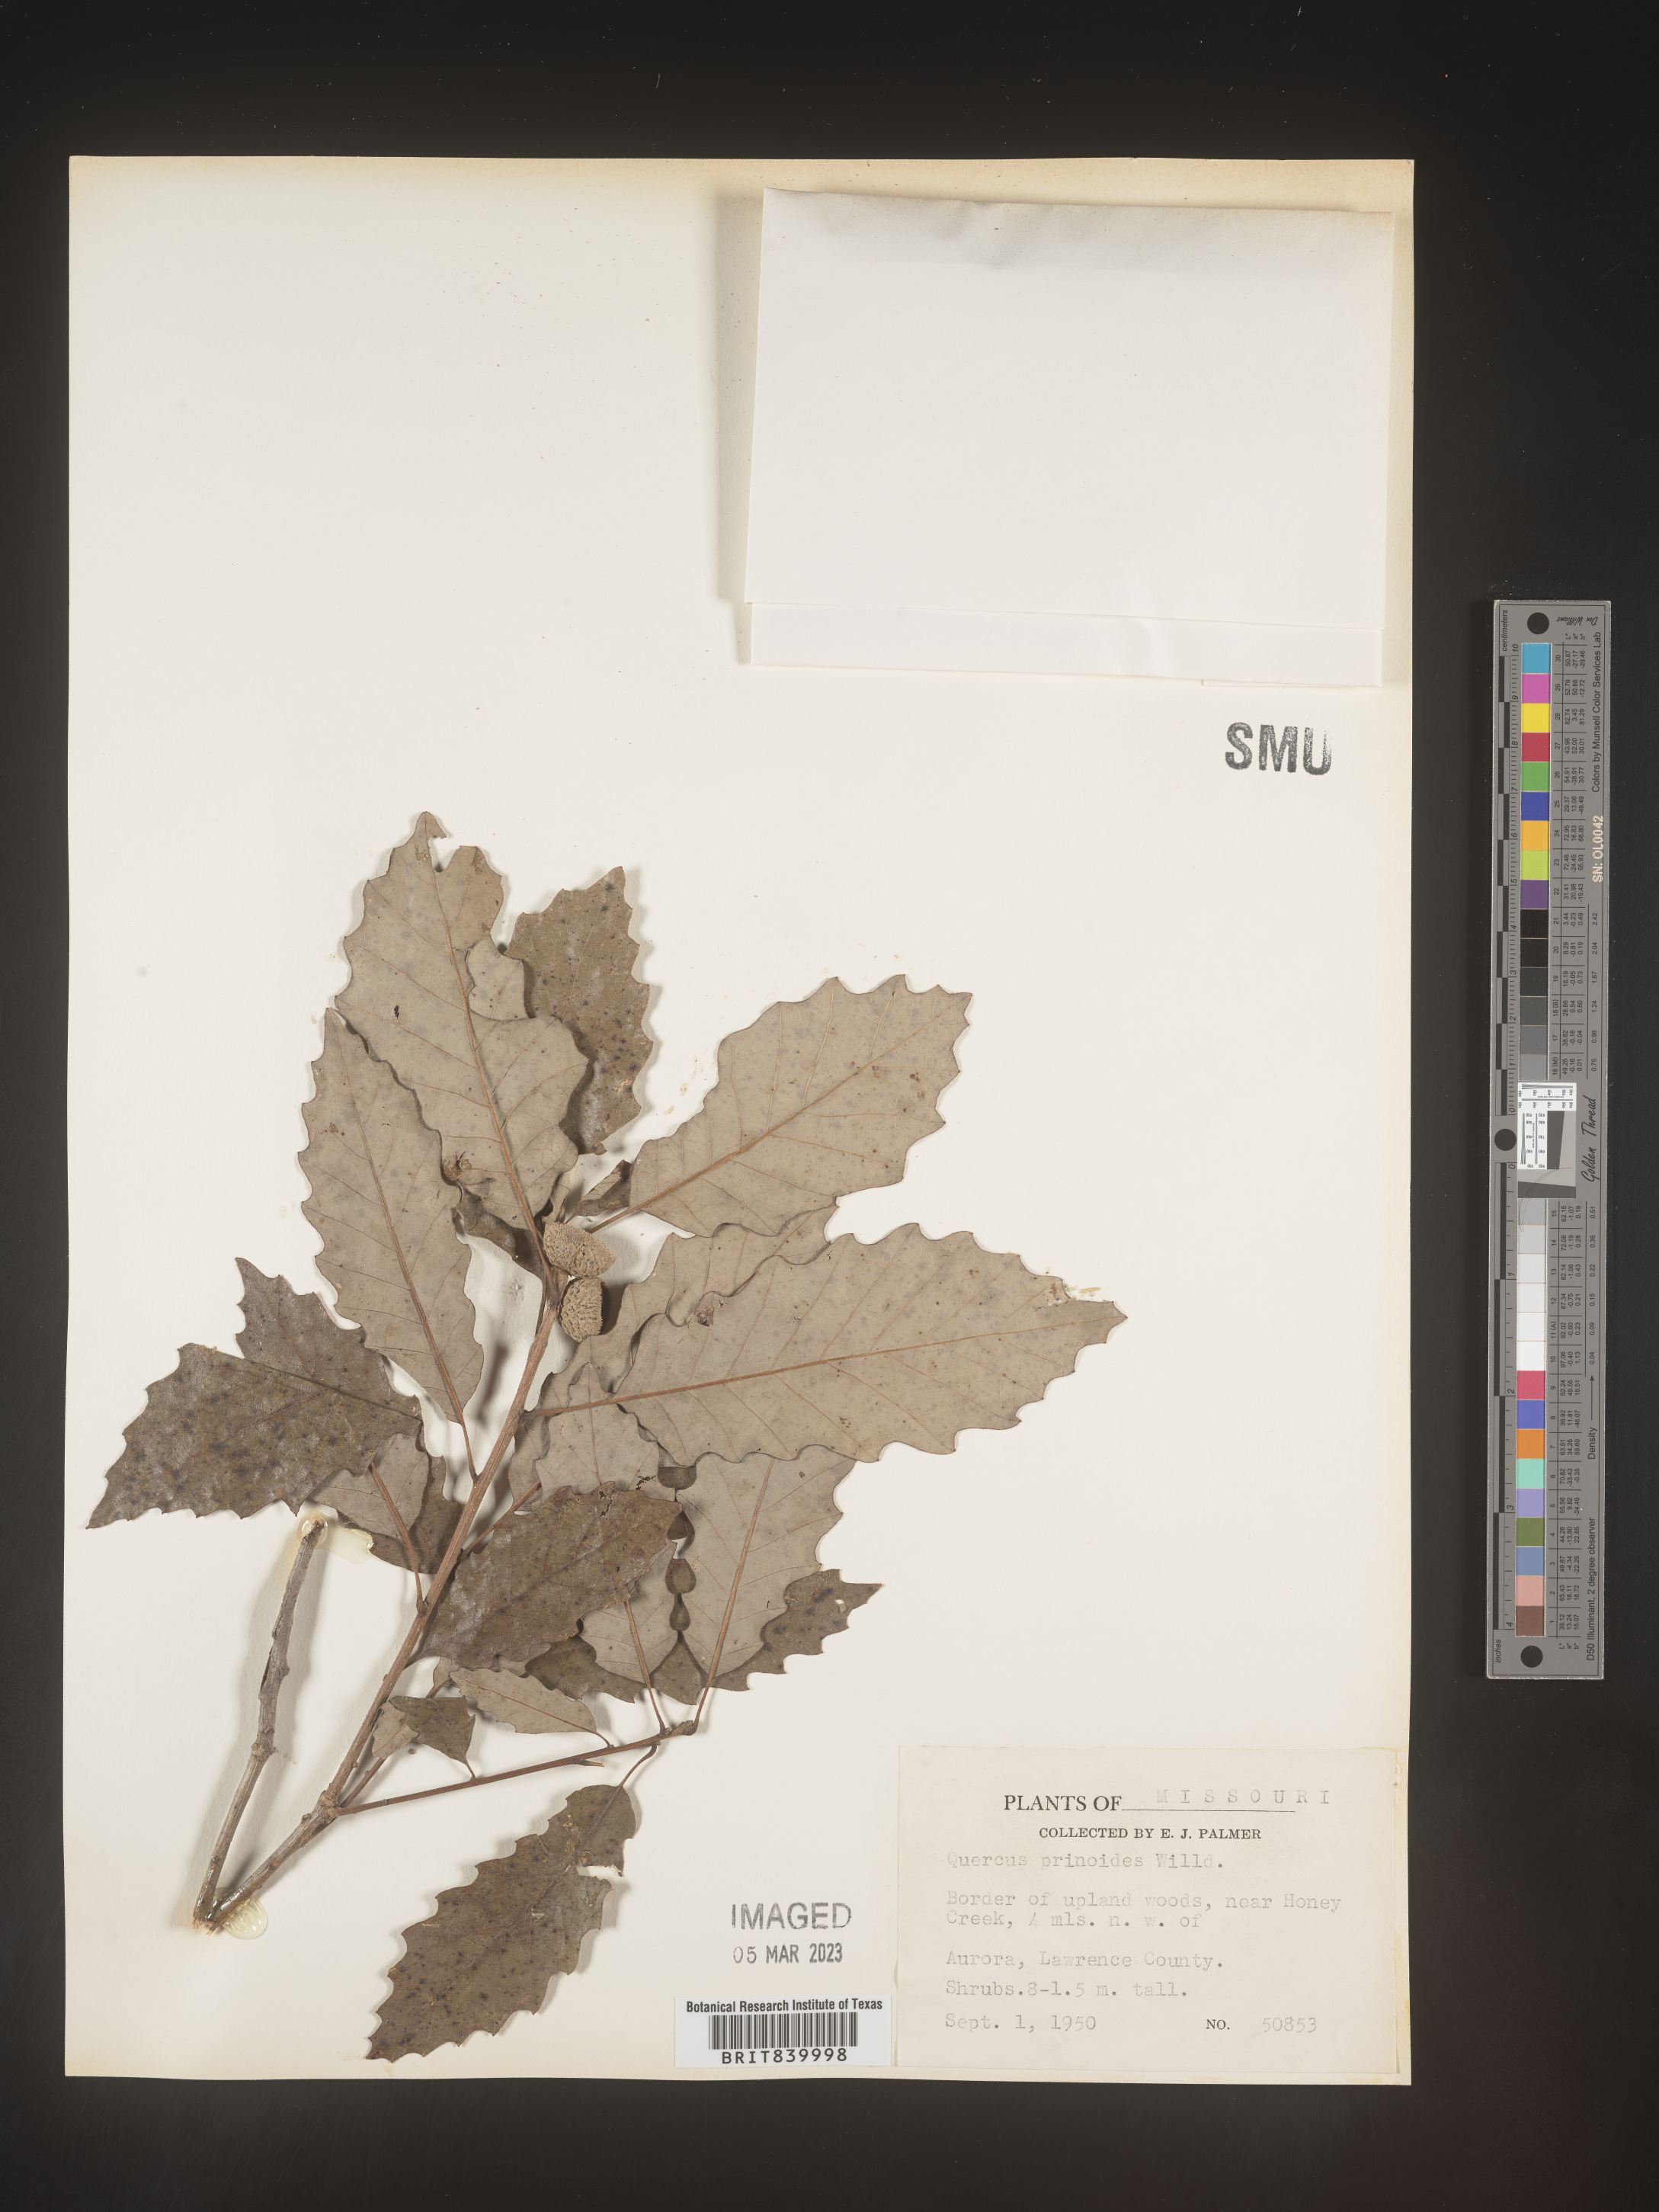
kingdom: Plantae
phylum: Tracheophyta
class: Magnoliopsida
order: Fagales
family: Fagaceae
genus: Quercus
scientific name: Quercus prinoides
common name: Dwarf chinkapin oak
